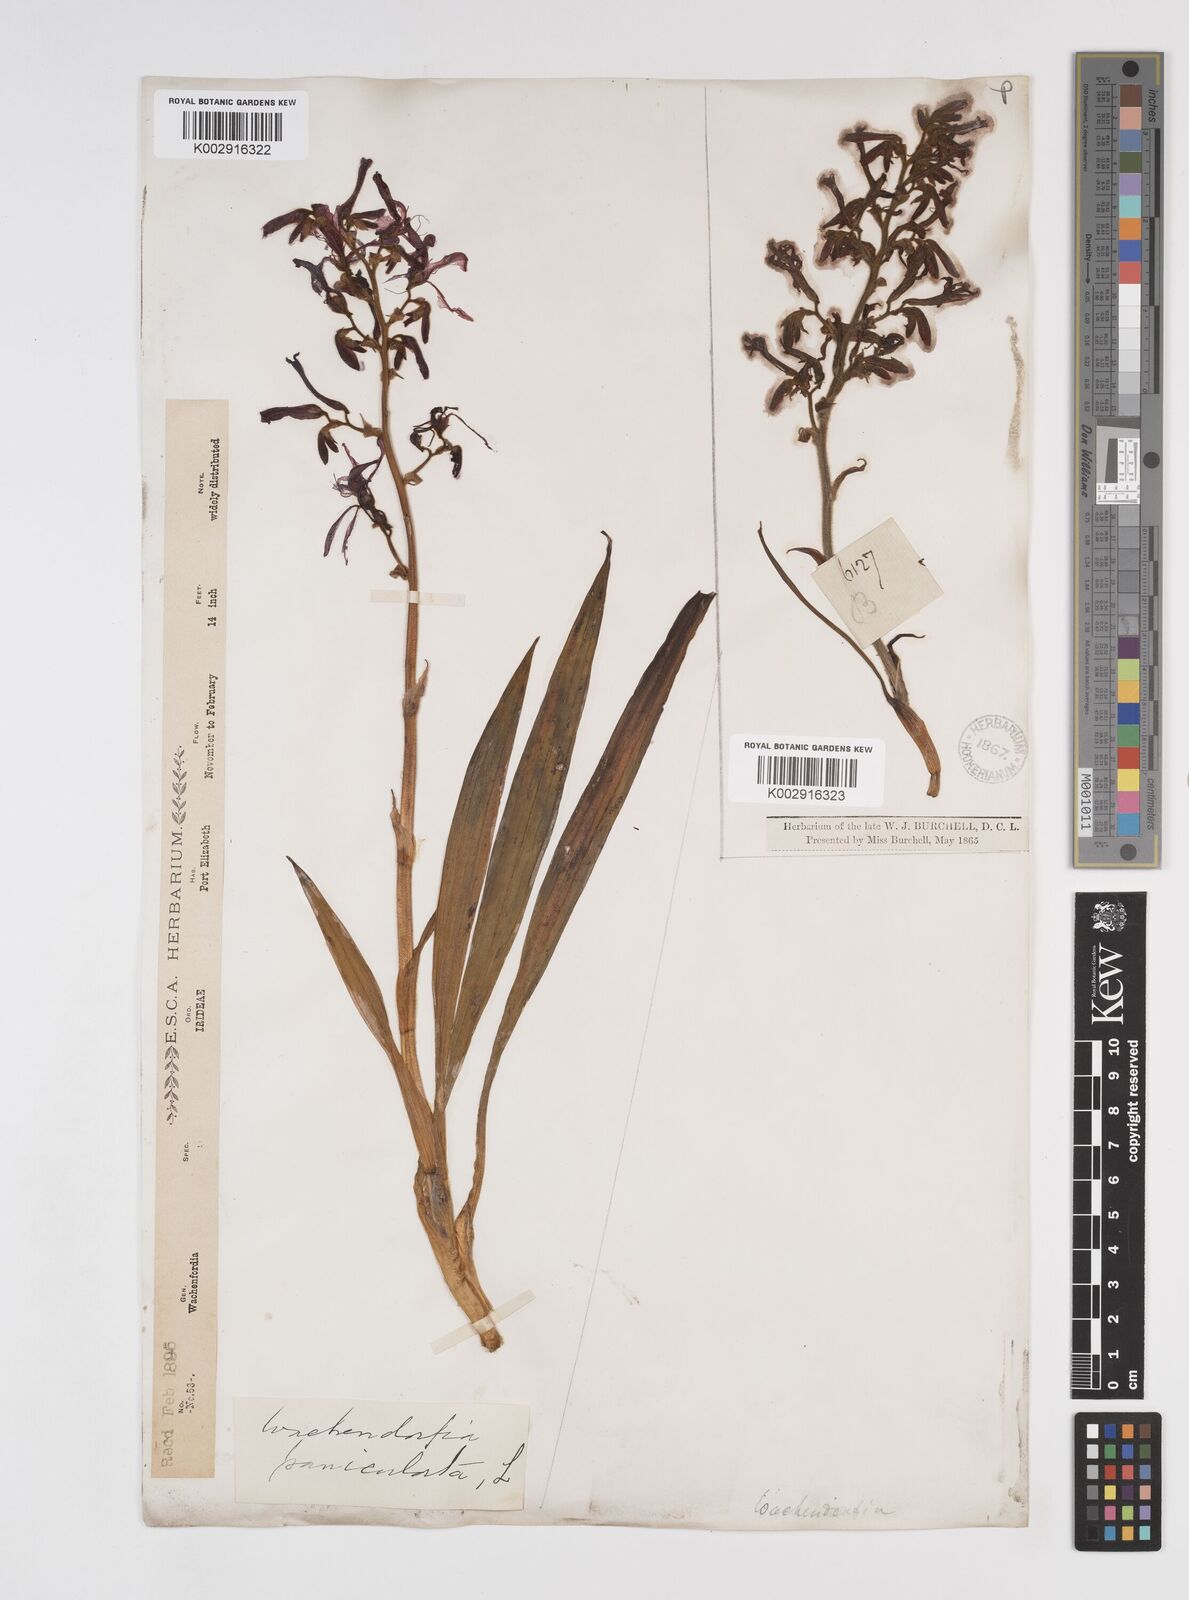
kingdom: Plantae
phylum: Tracheophyta
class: Liliopsida
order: Commelinales
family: Haemodoraceae
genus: Wachendorfia
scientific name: Wachendorfia paniculata
